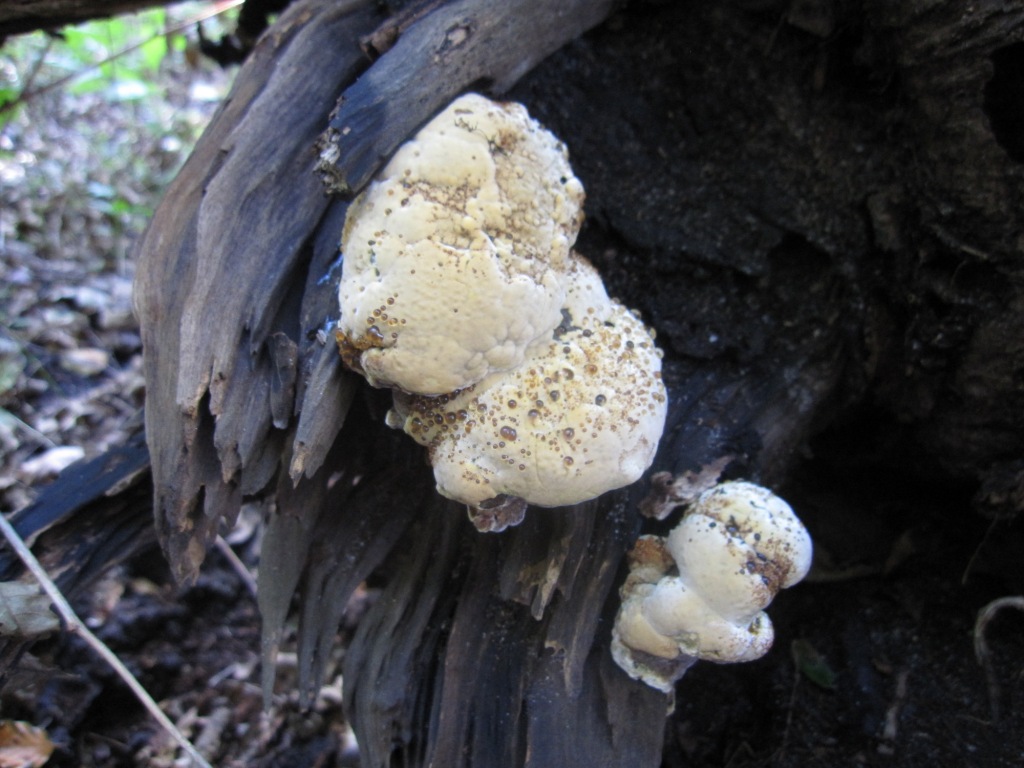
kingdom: Fungi
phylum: Basidiomycota
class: Agaricomycetes
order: Hymenochaetales
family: Hymenochaetaceae
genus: Xanthoporia
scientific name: Xanthoporia radiata
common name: elle-spejlporesvamp
